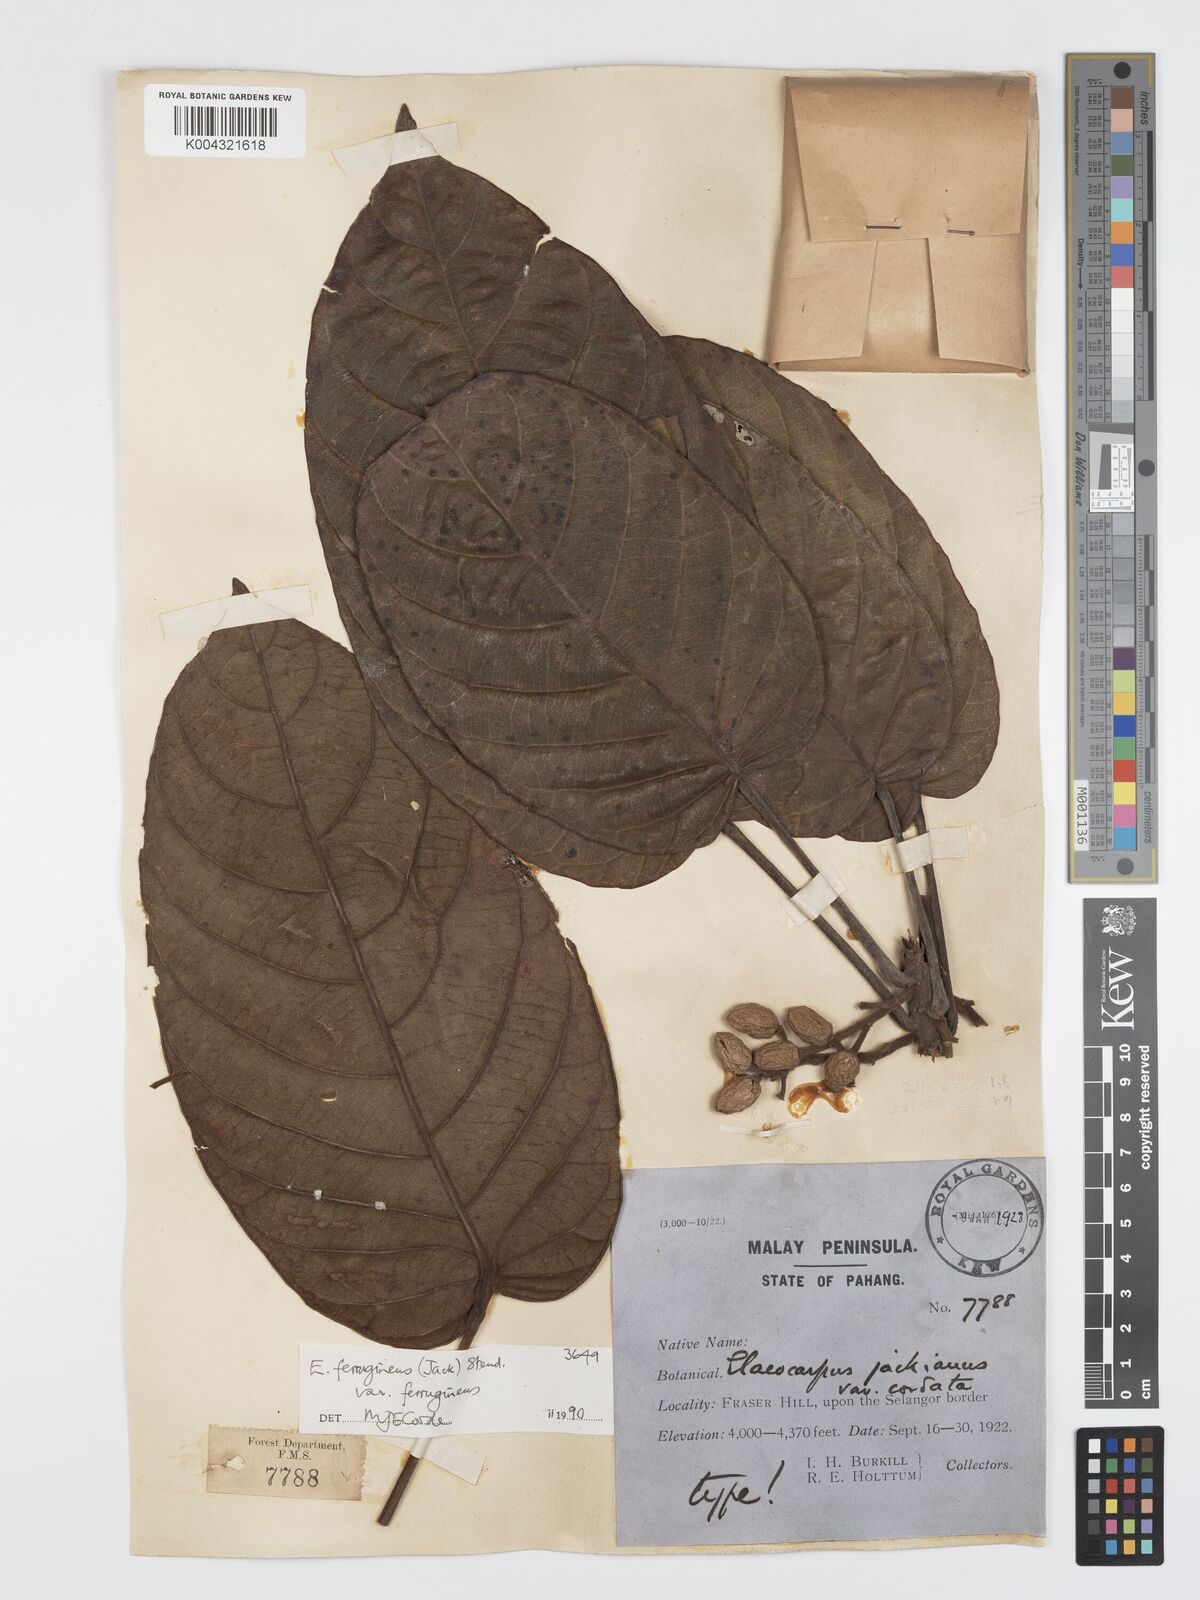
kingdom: Plantae
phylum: Tracheophyta
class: Magnoliopsida
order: Oxalidales
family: Elaeocarpaceae
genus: Elaeocarpus
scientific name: Elaeocarpus ferrugineus
